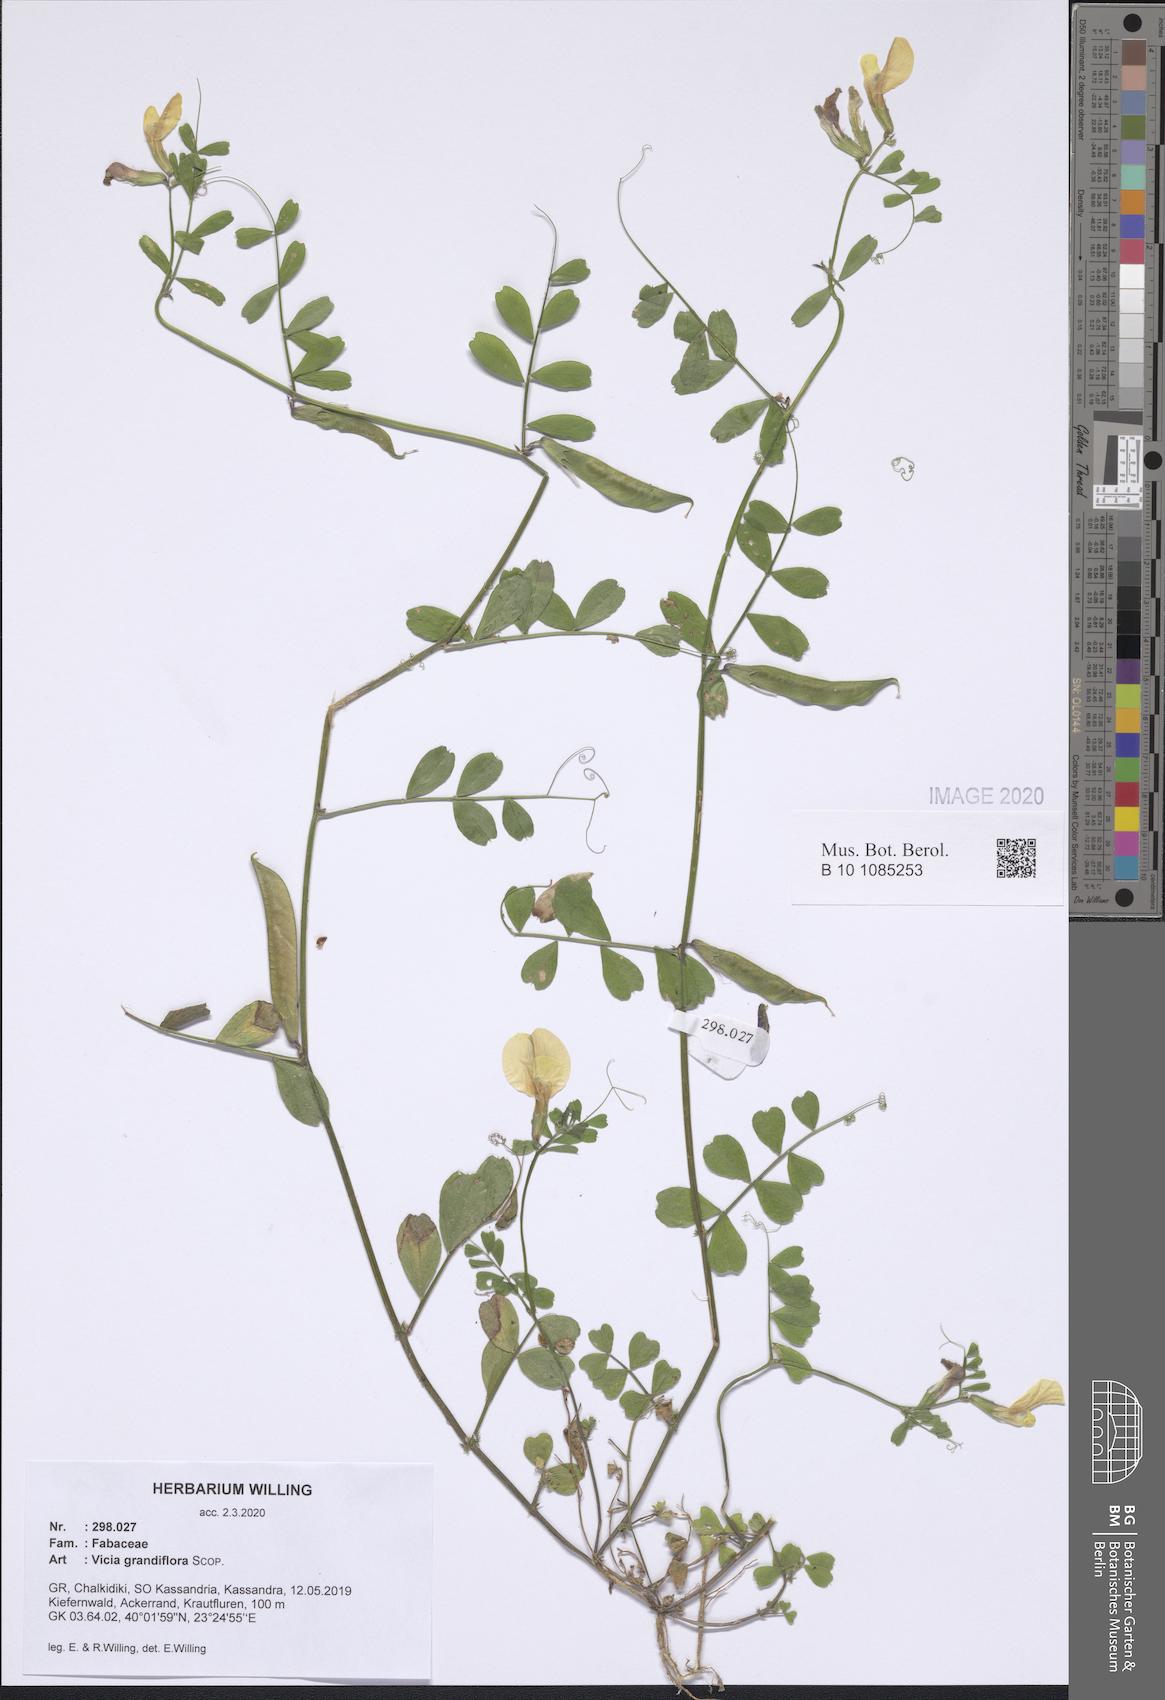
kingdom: Plantae
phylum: Tracheophyta
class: Magnoliopsida
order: Fabales
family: Fabaceae
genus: Vicia
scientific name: Vicia grandiflora
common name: Large yellow vetch
